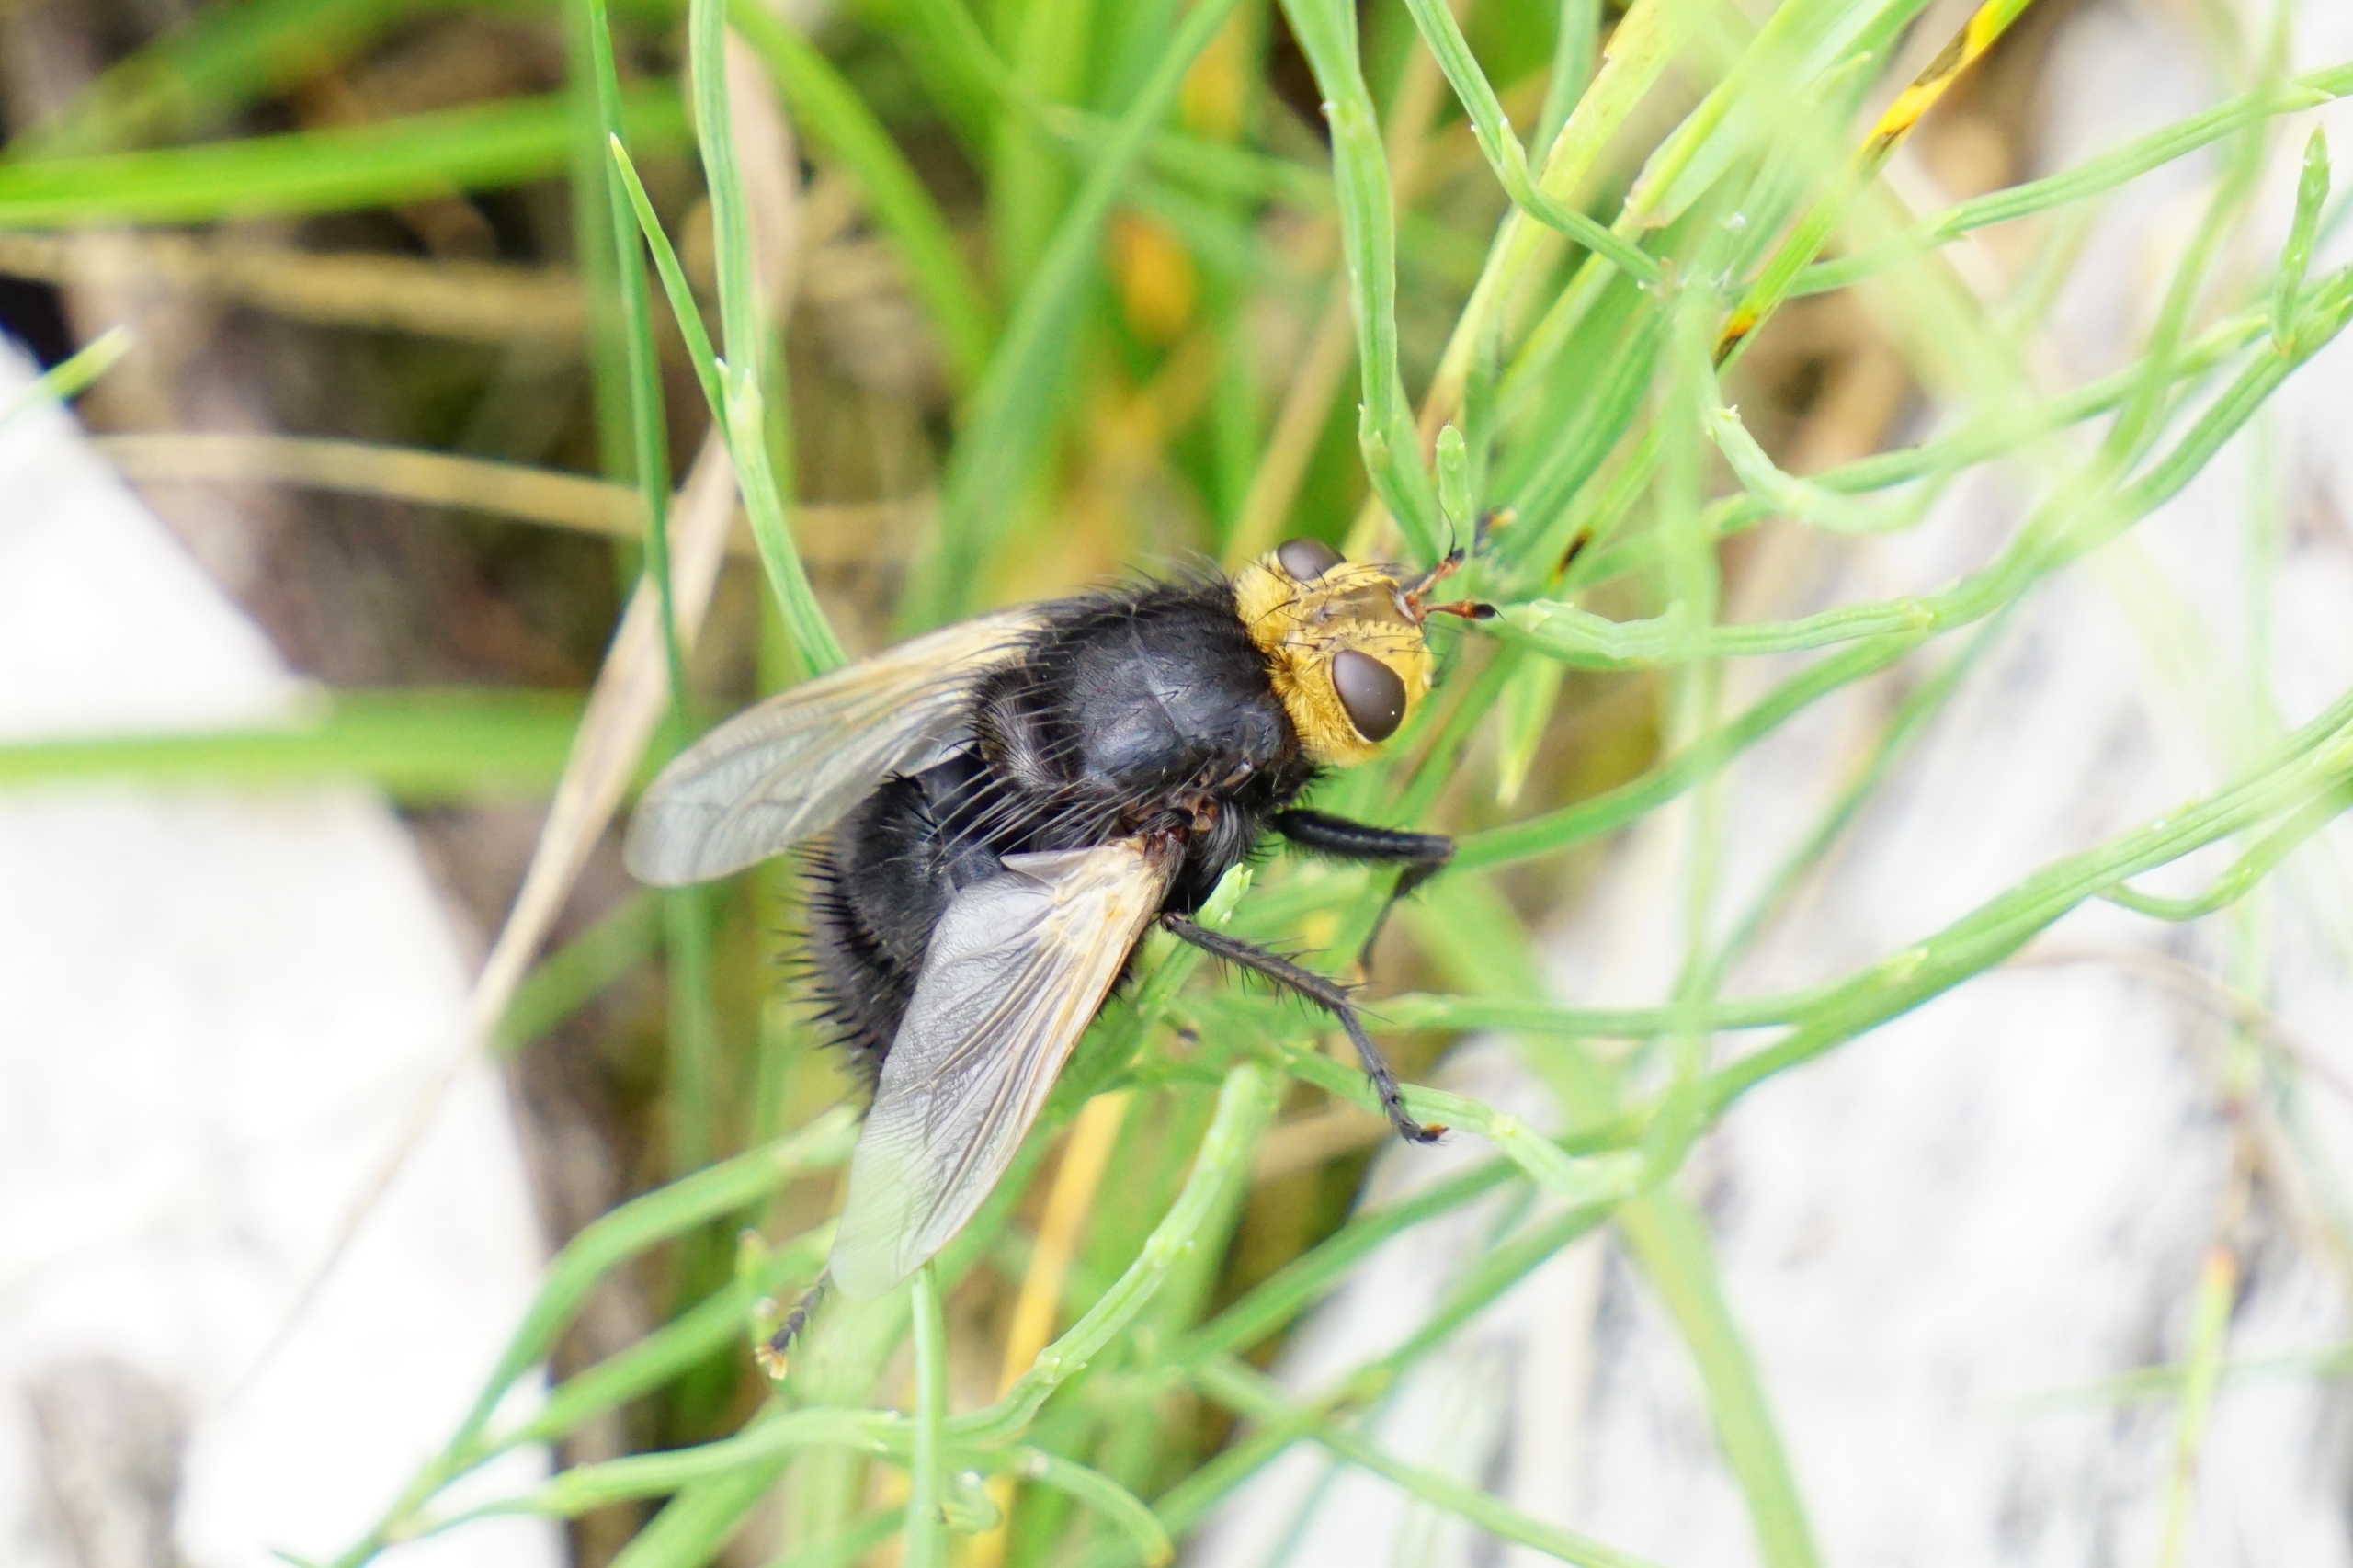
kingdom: Animalia
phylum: Arthropoda
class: Insecta
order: Diptera
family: Tachinidae
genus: Tachina
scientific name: Tachina grossa
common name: Kæmpefluen Harald
